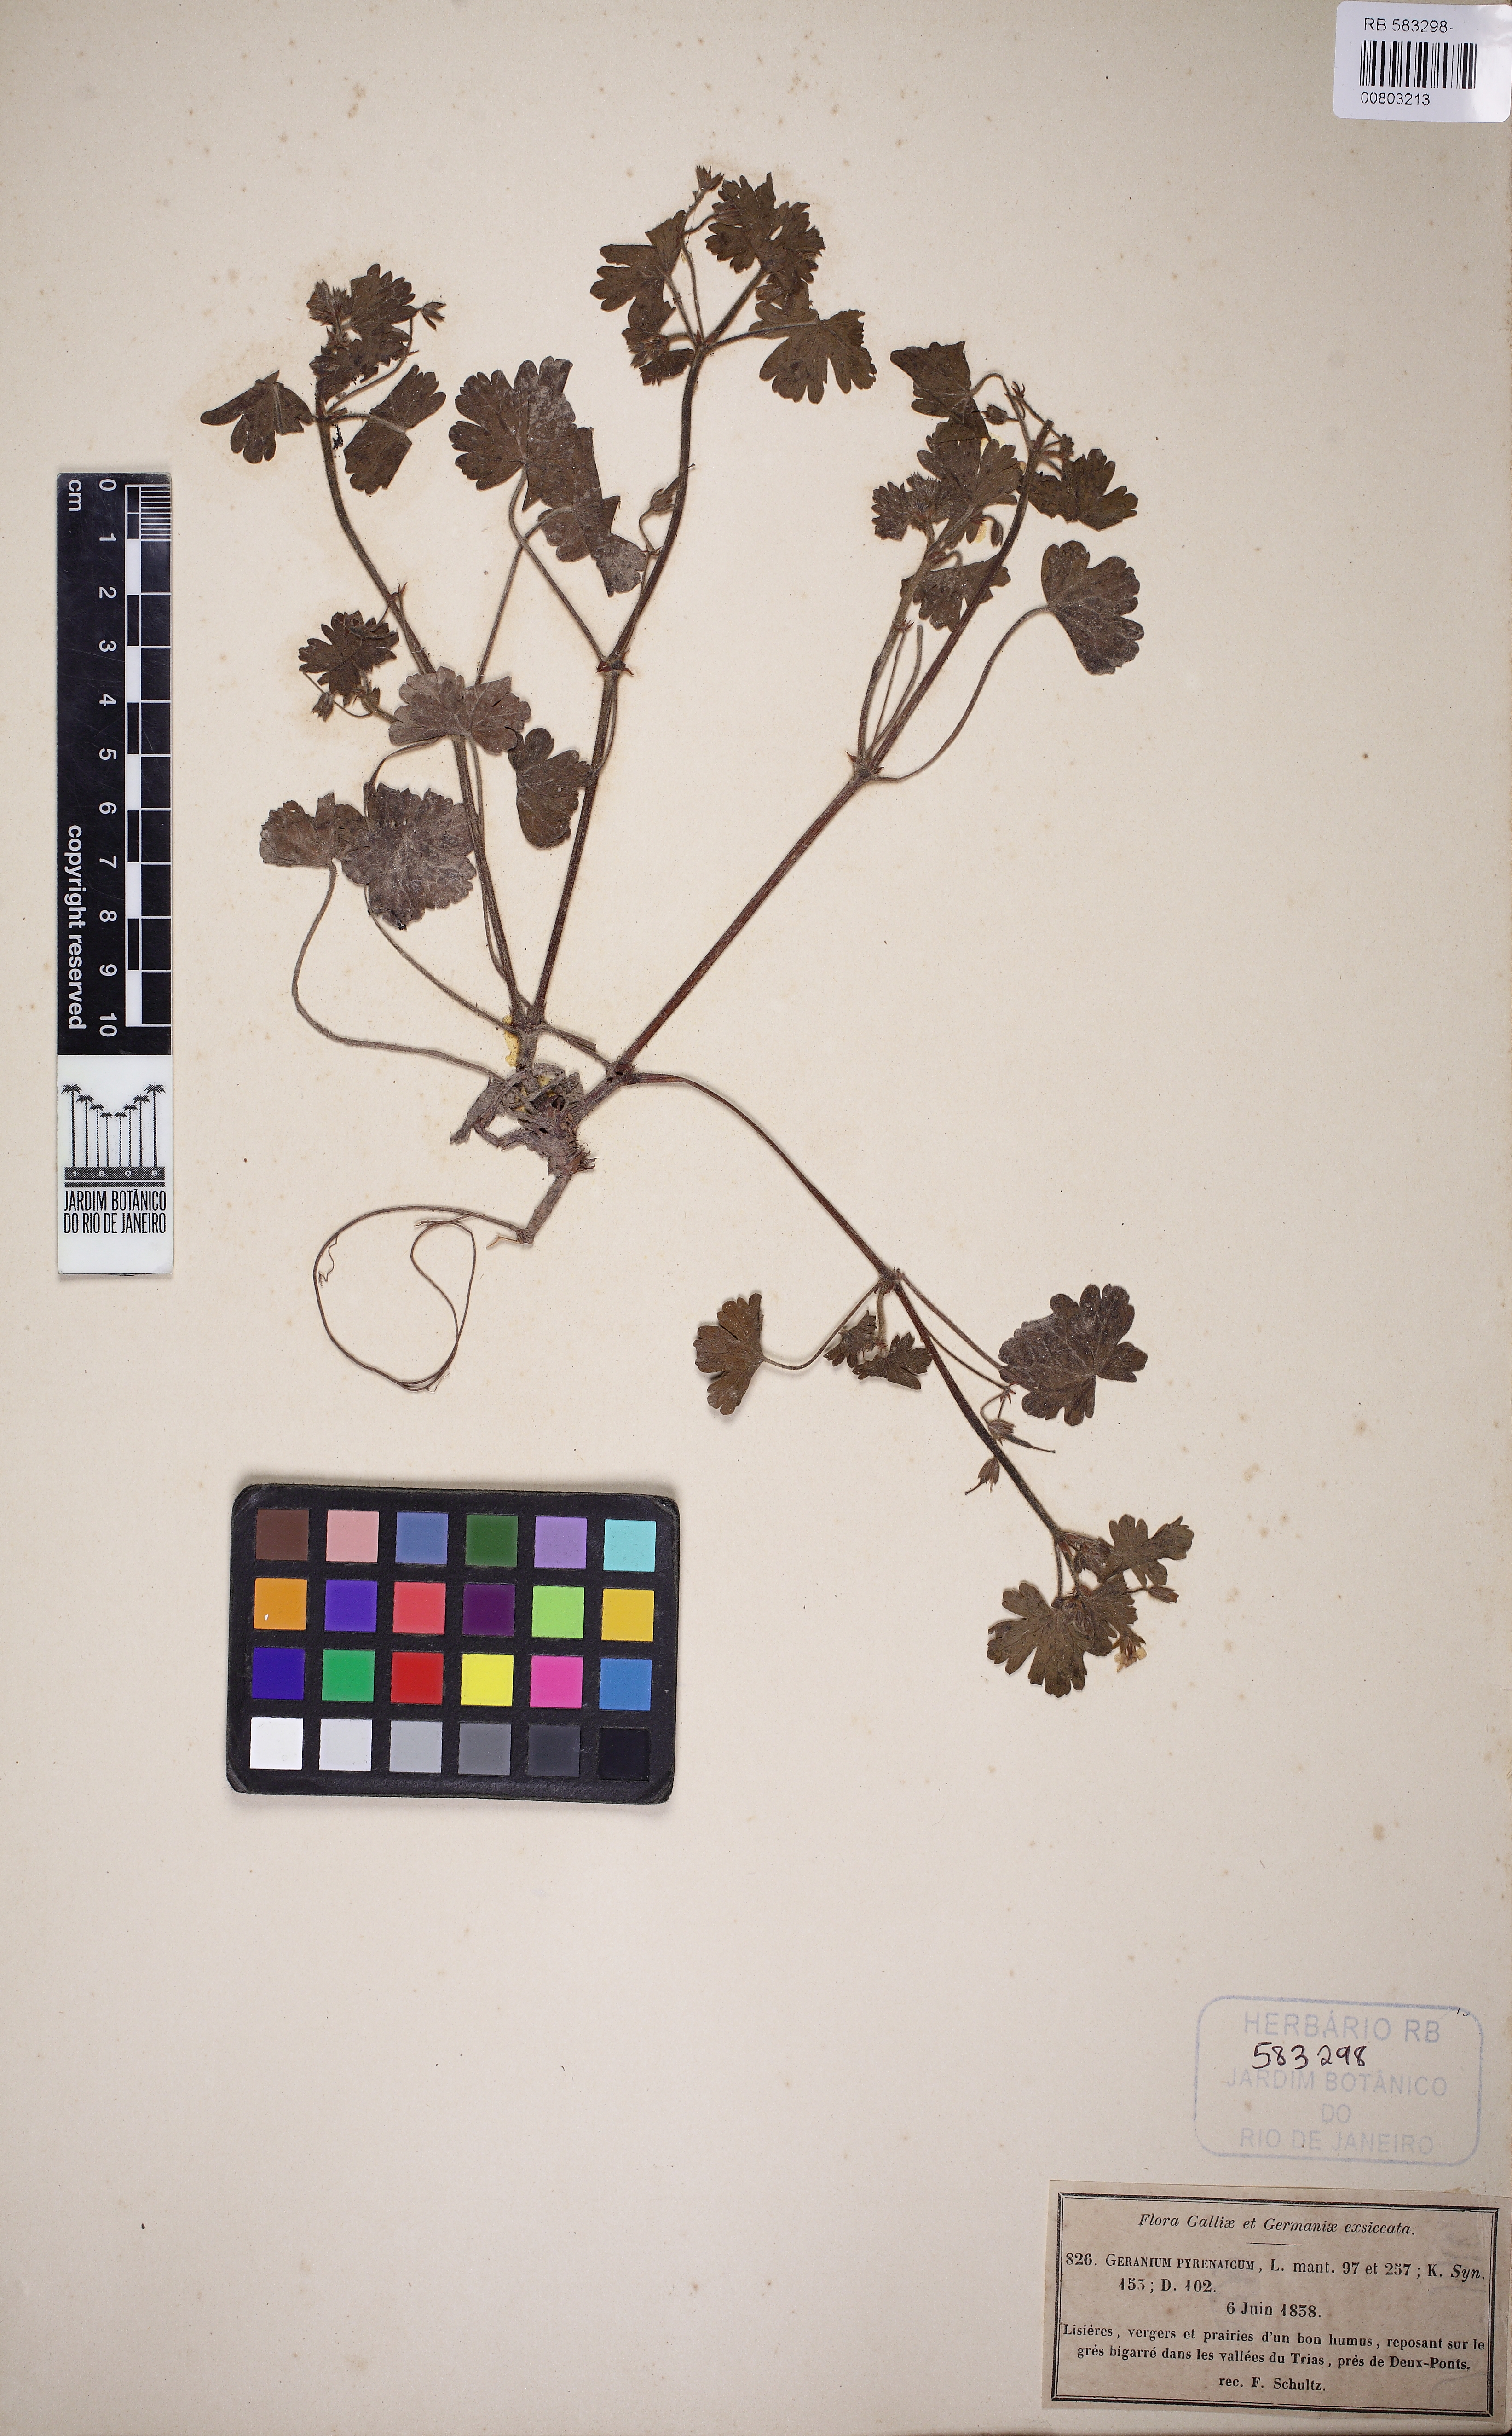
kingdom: Plantae
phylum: Tracheophyta
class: Magnoliopsida
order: Geraniales
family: Geraniaceae
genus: Geranium
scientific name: Geranium pyrenaicum
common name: Hedgerow crane's-bill
